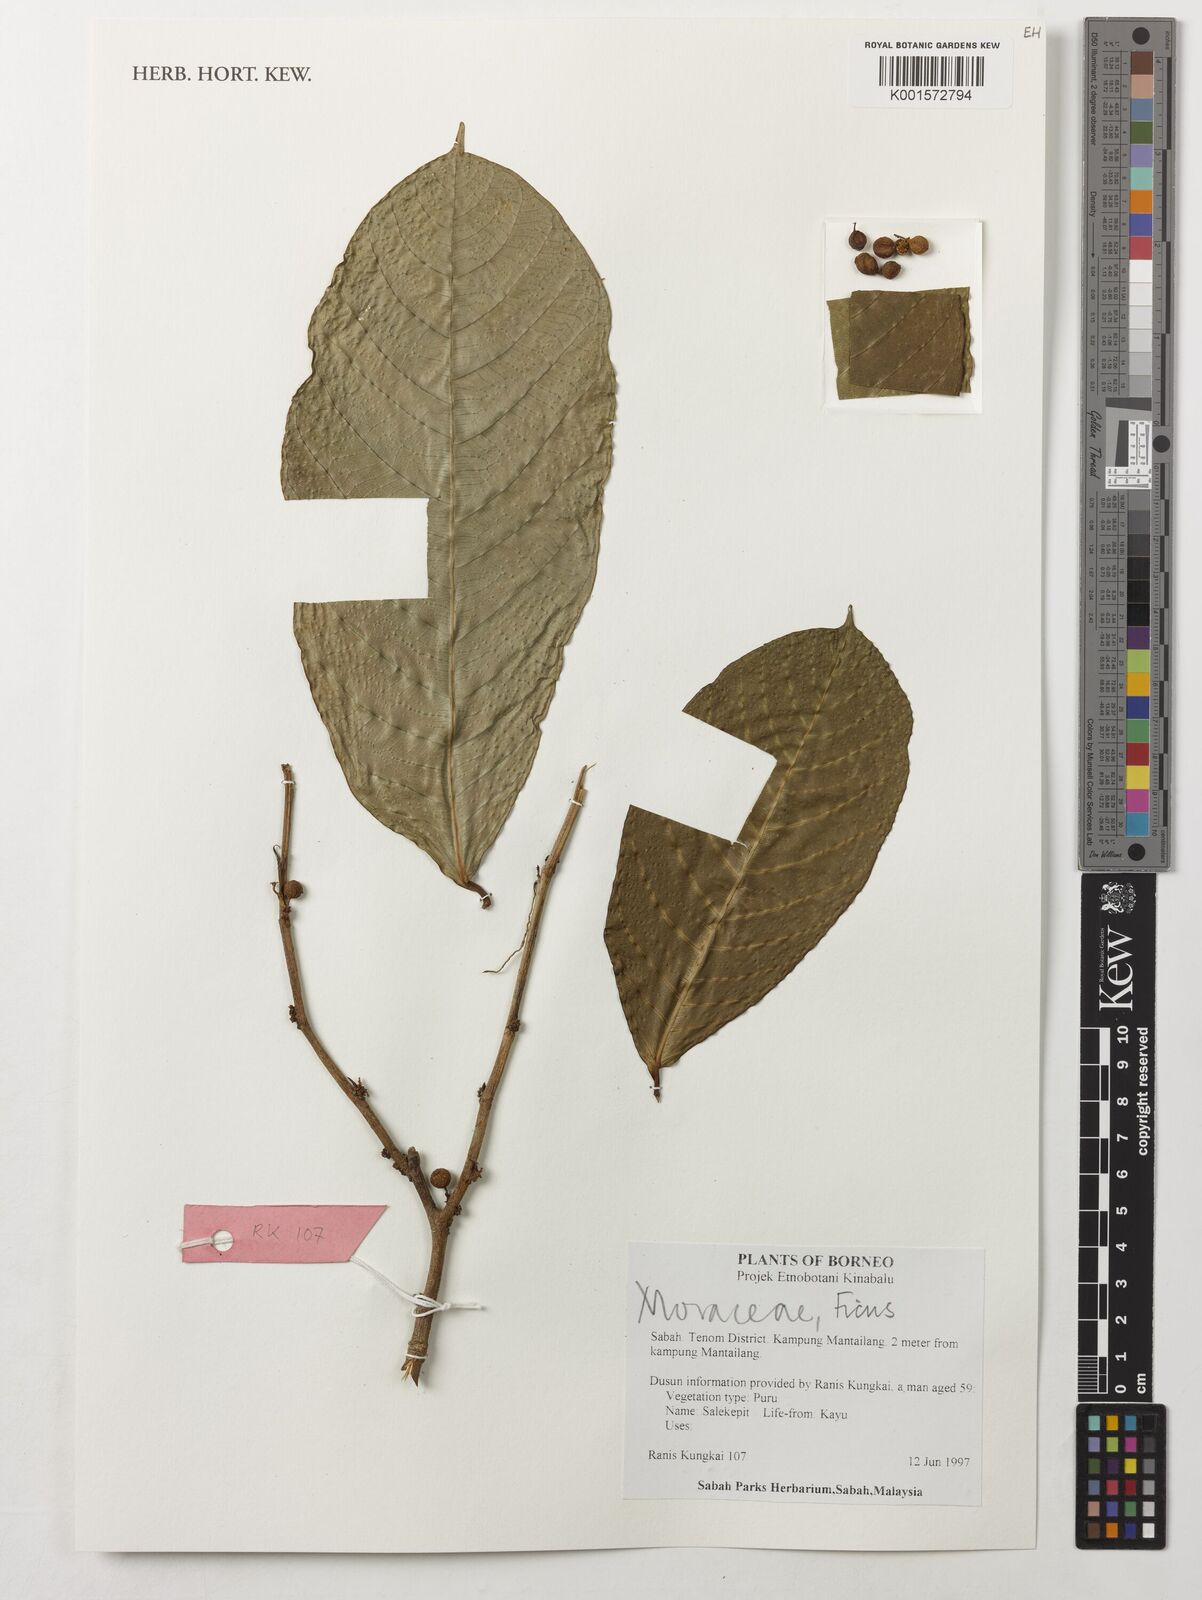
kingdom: Plantae
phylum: Tracheophyta
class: Magnoliopsida
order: Rosales
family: Moraceae
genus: Ficus
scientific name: Ficus
